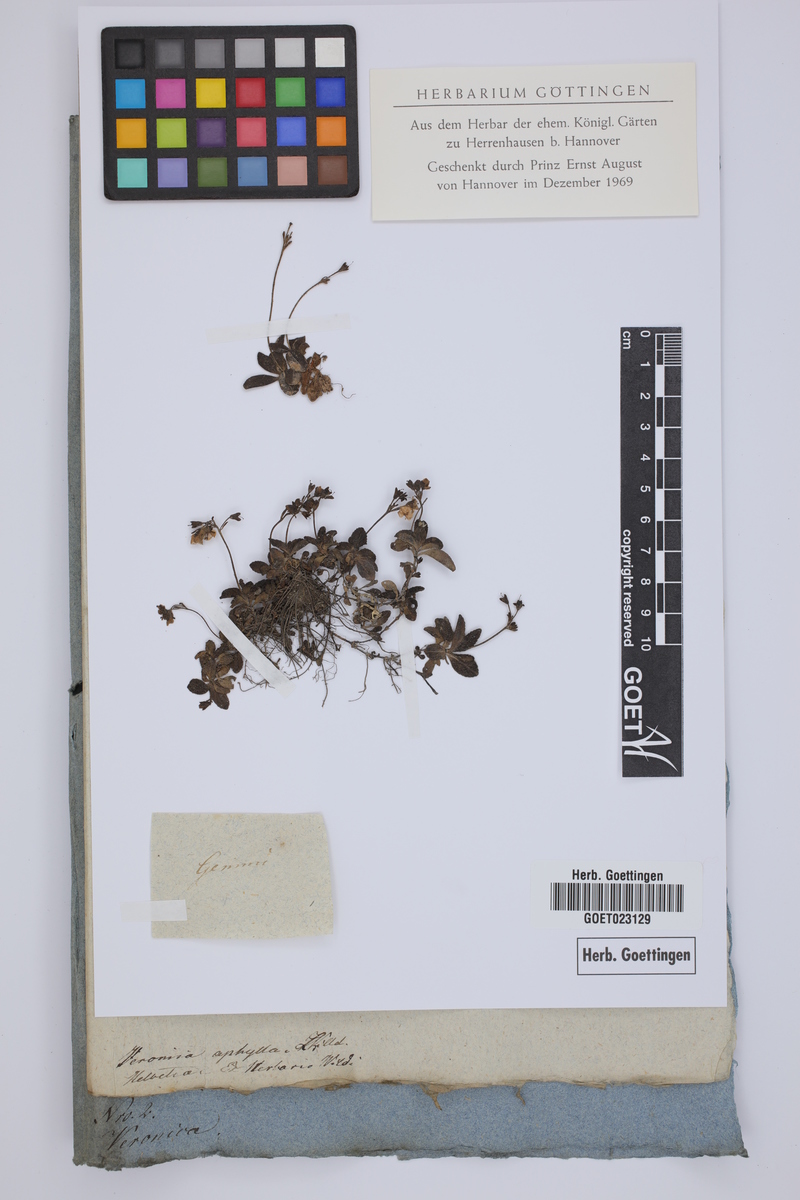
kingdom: Plantae
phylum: Tracheophyta
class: Magnoliopsida
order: Lamiales
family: Plantaginaceae
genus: Veronica
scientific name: Veronica aphylla
